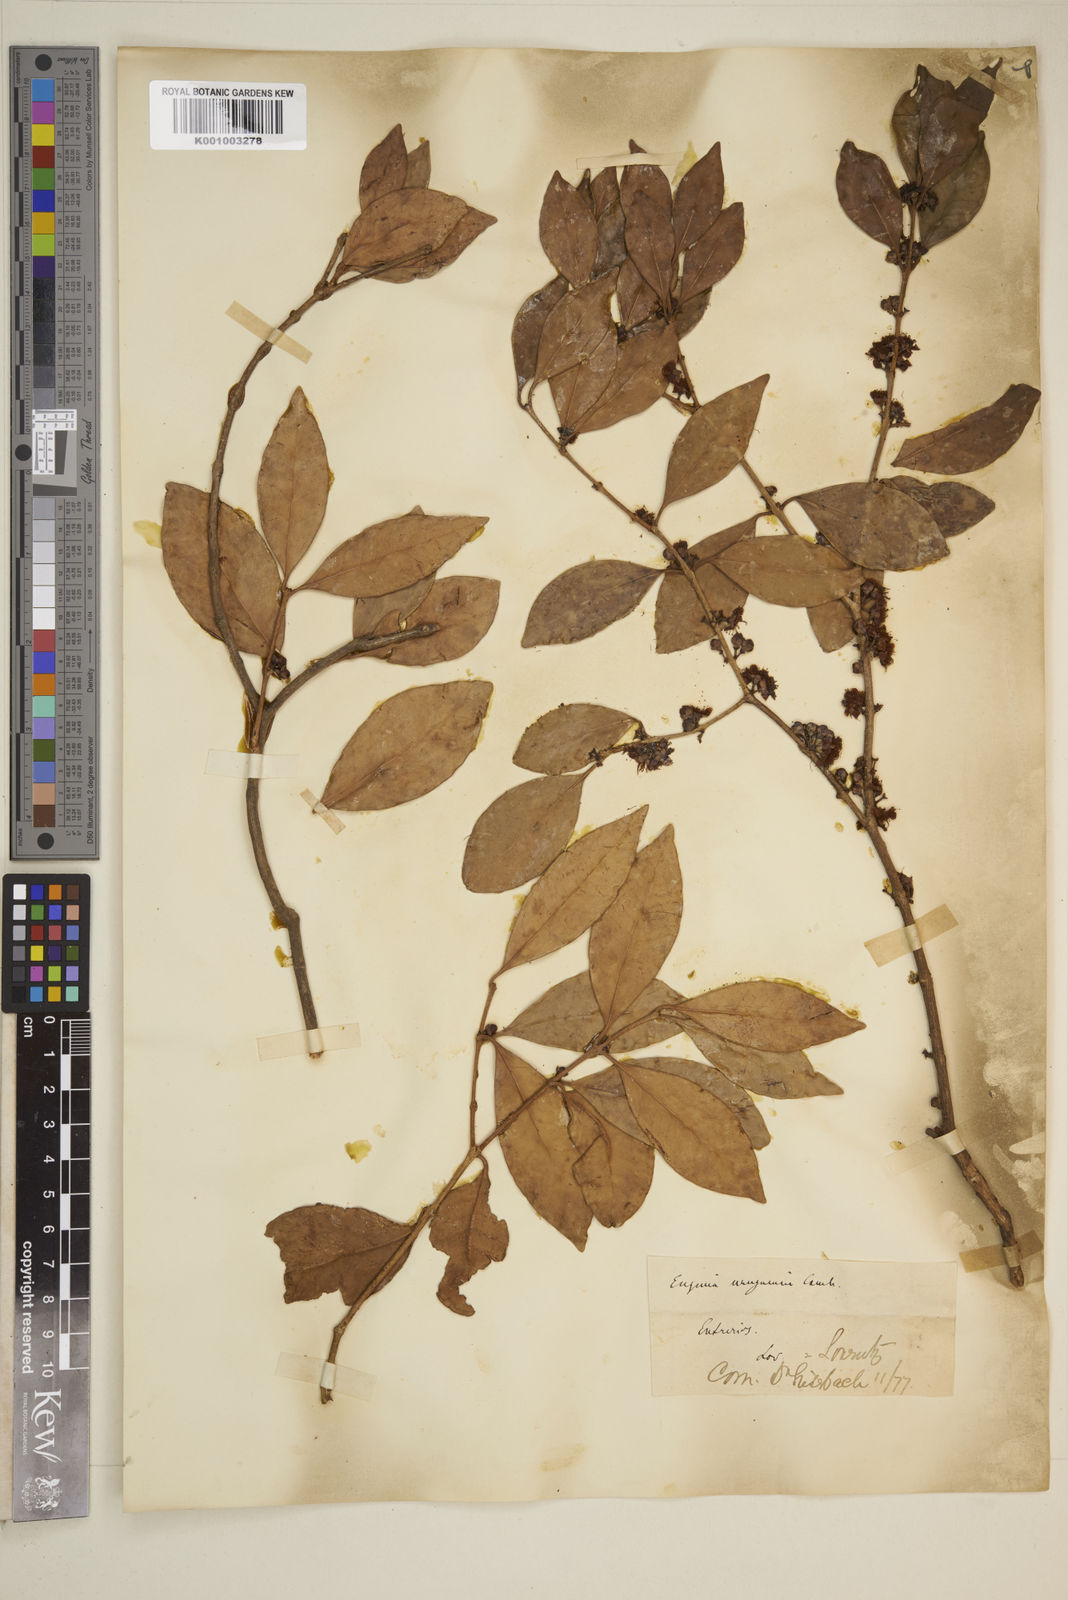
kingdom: Plantae
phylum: Tracheophyta
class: Magnoliopsida
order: Myrtales
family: Myrtaceae
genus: Eugenia
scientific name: Eugenia
